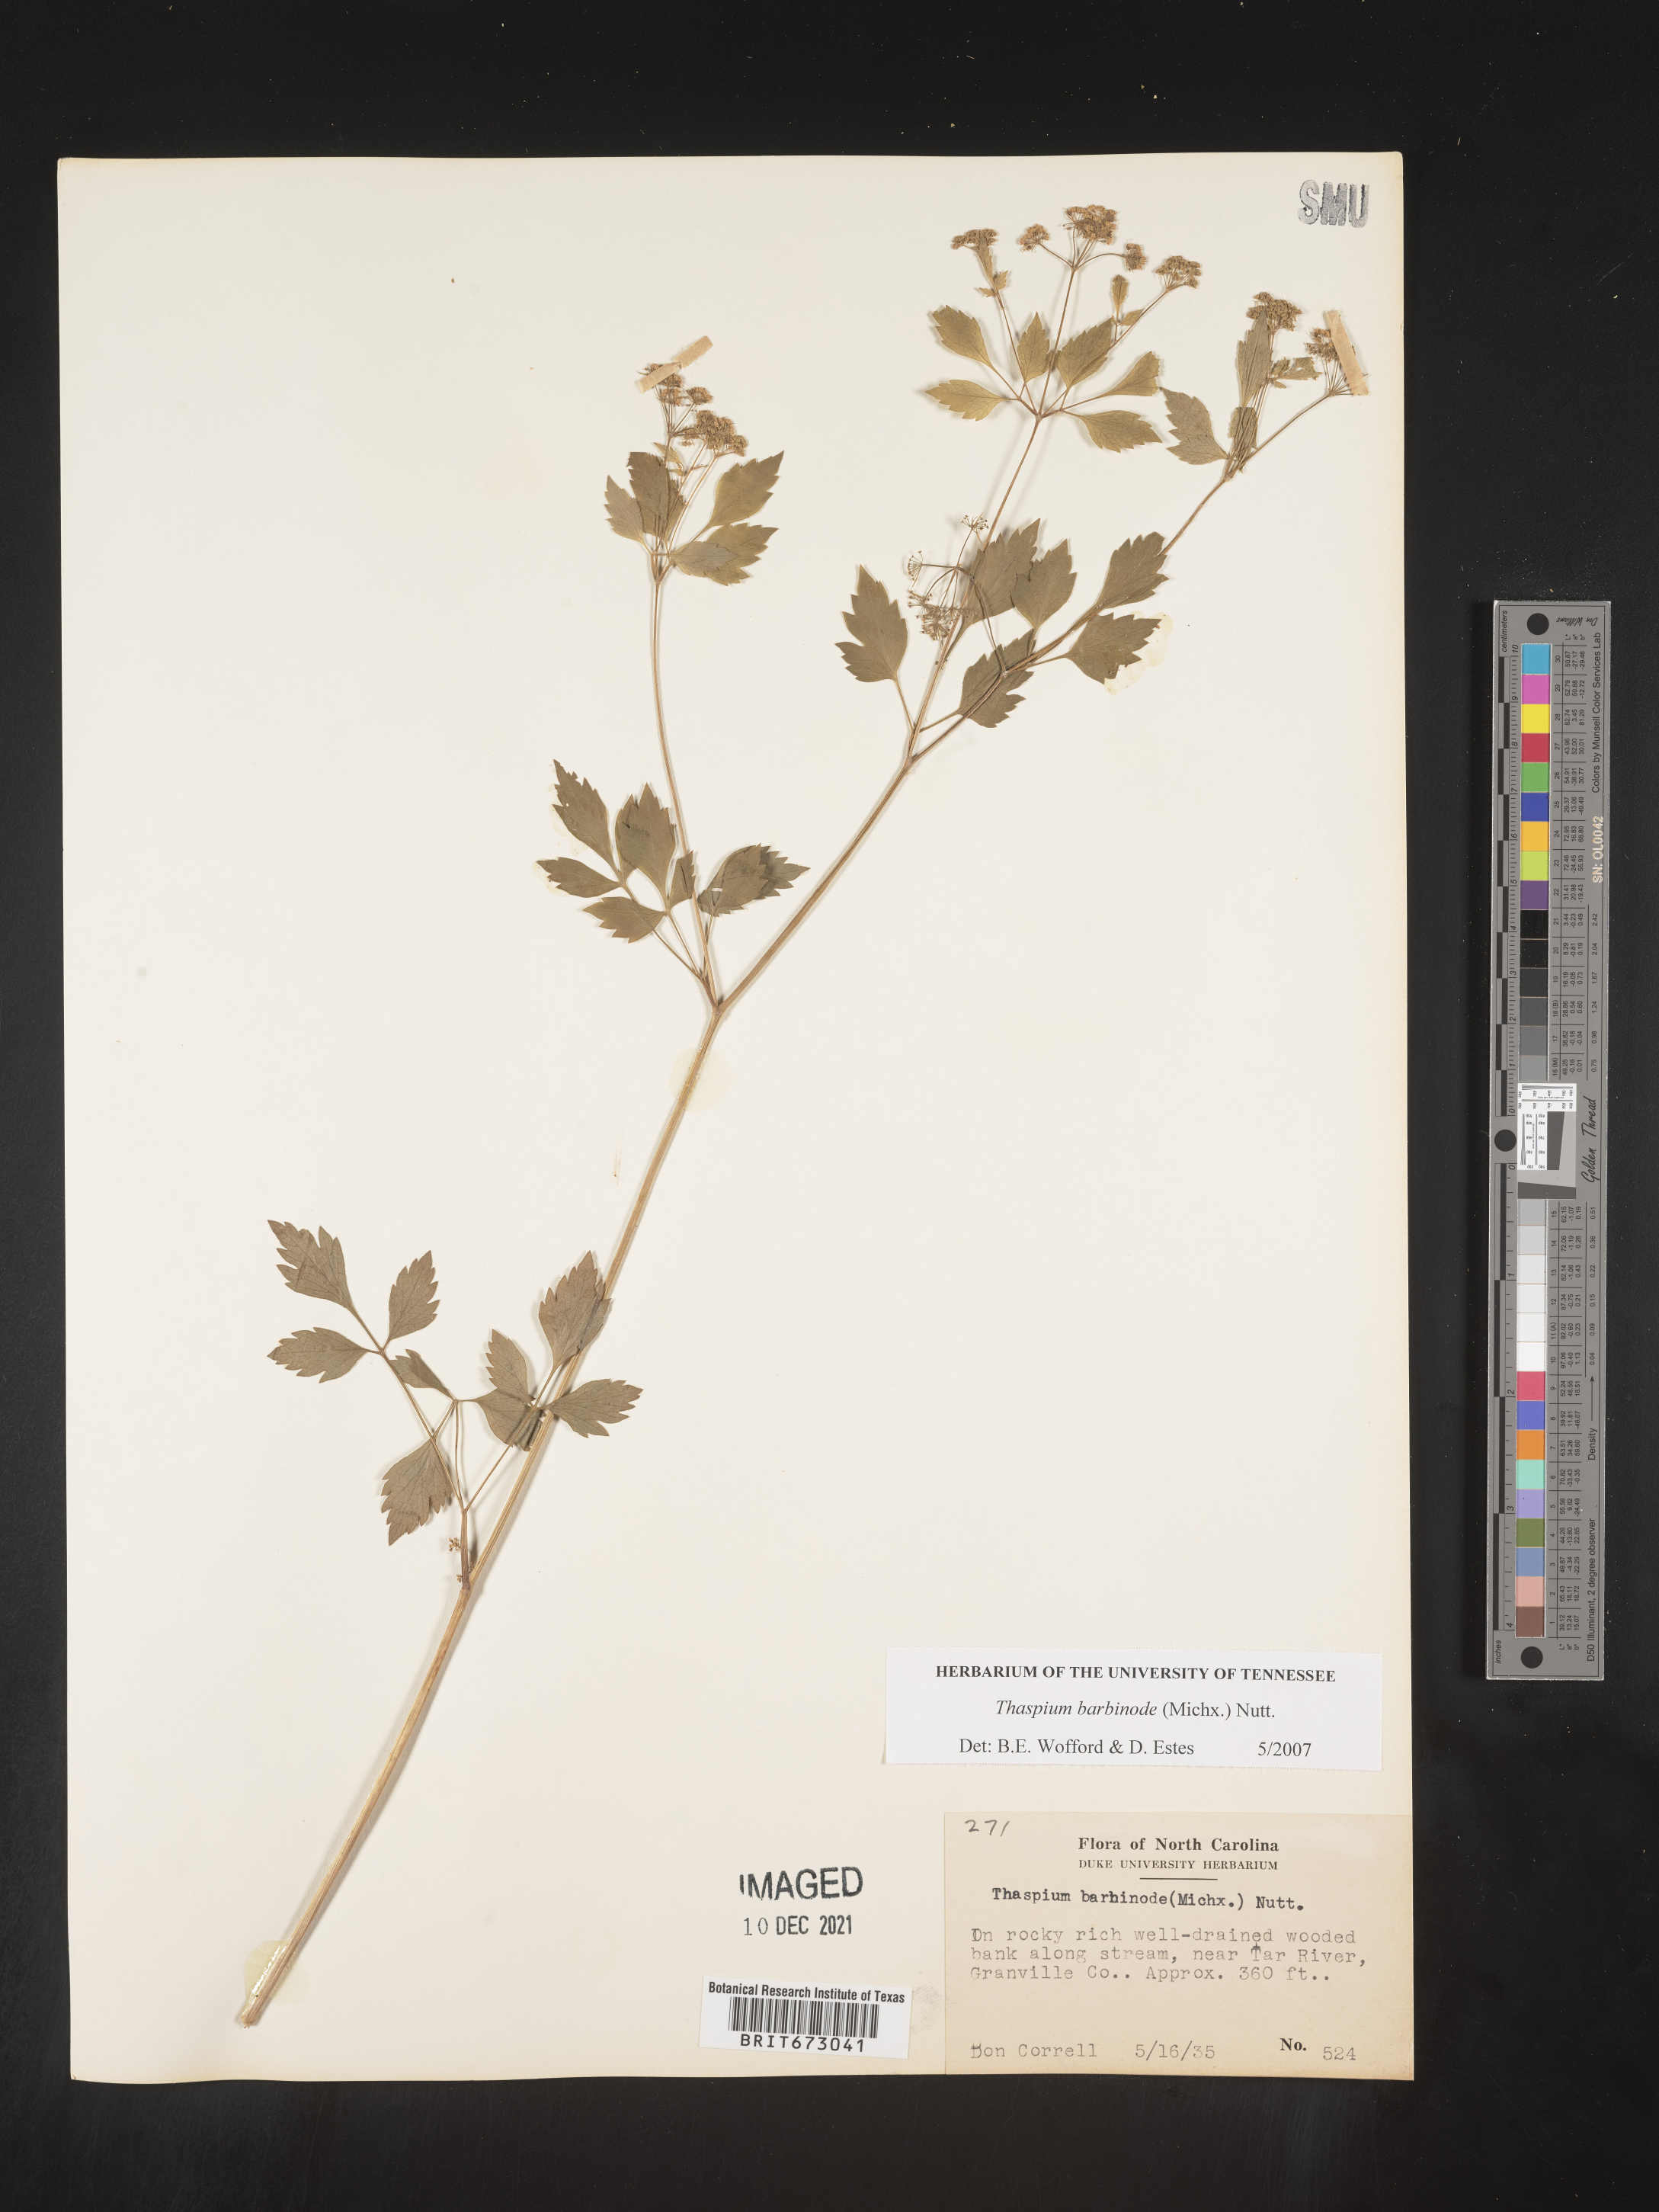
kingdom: Plantae
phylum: Tracheophyta
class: Magnoliopsida
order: Apiales
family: Apiaceae
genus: Thaspium
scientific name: Thaspium barbinode
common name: Bearded meadow-parsnip
